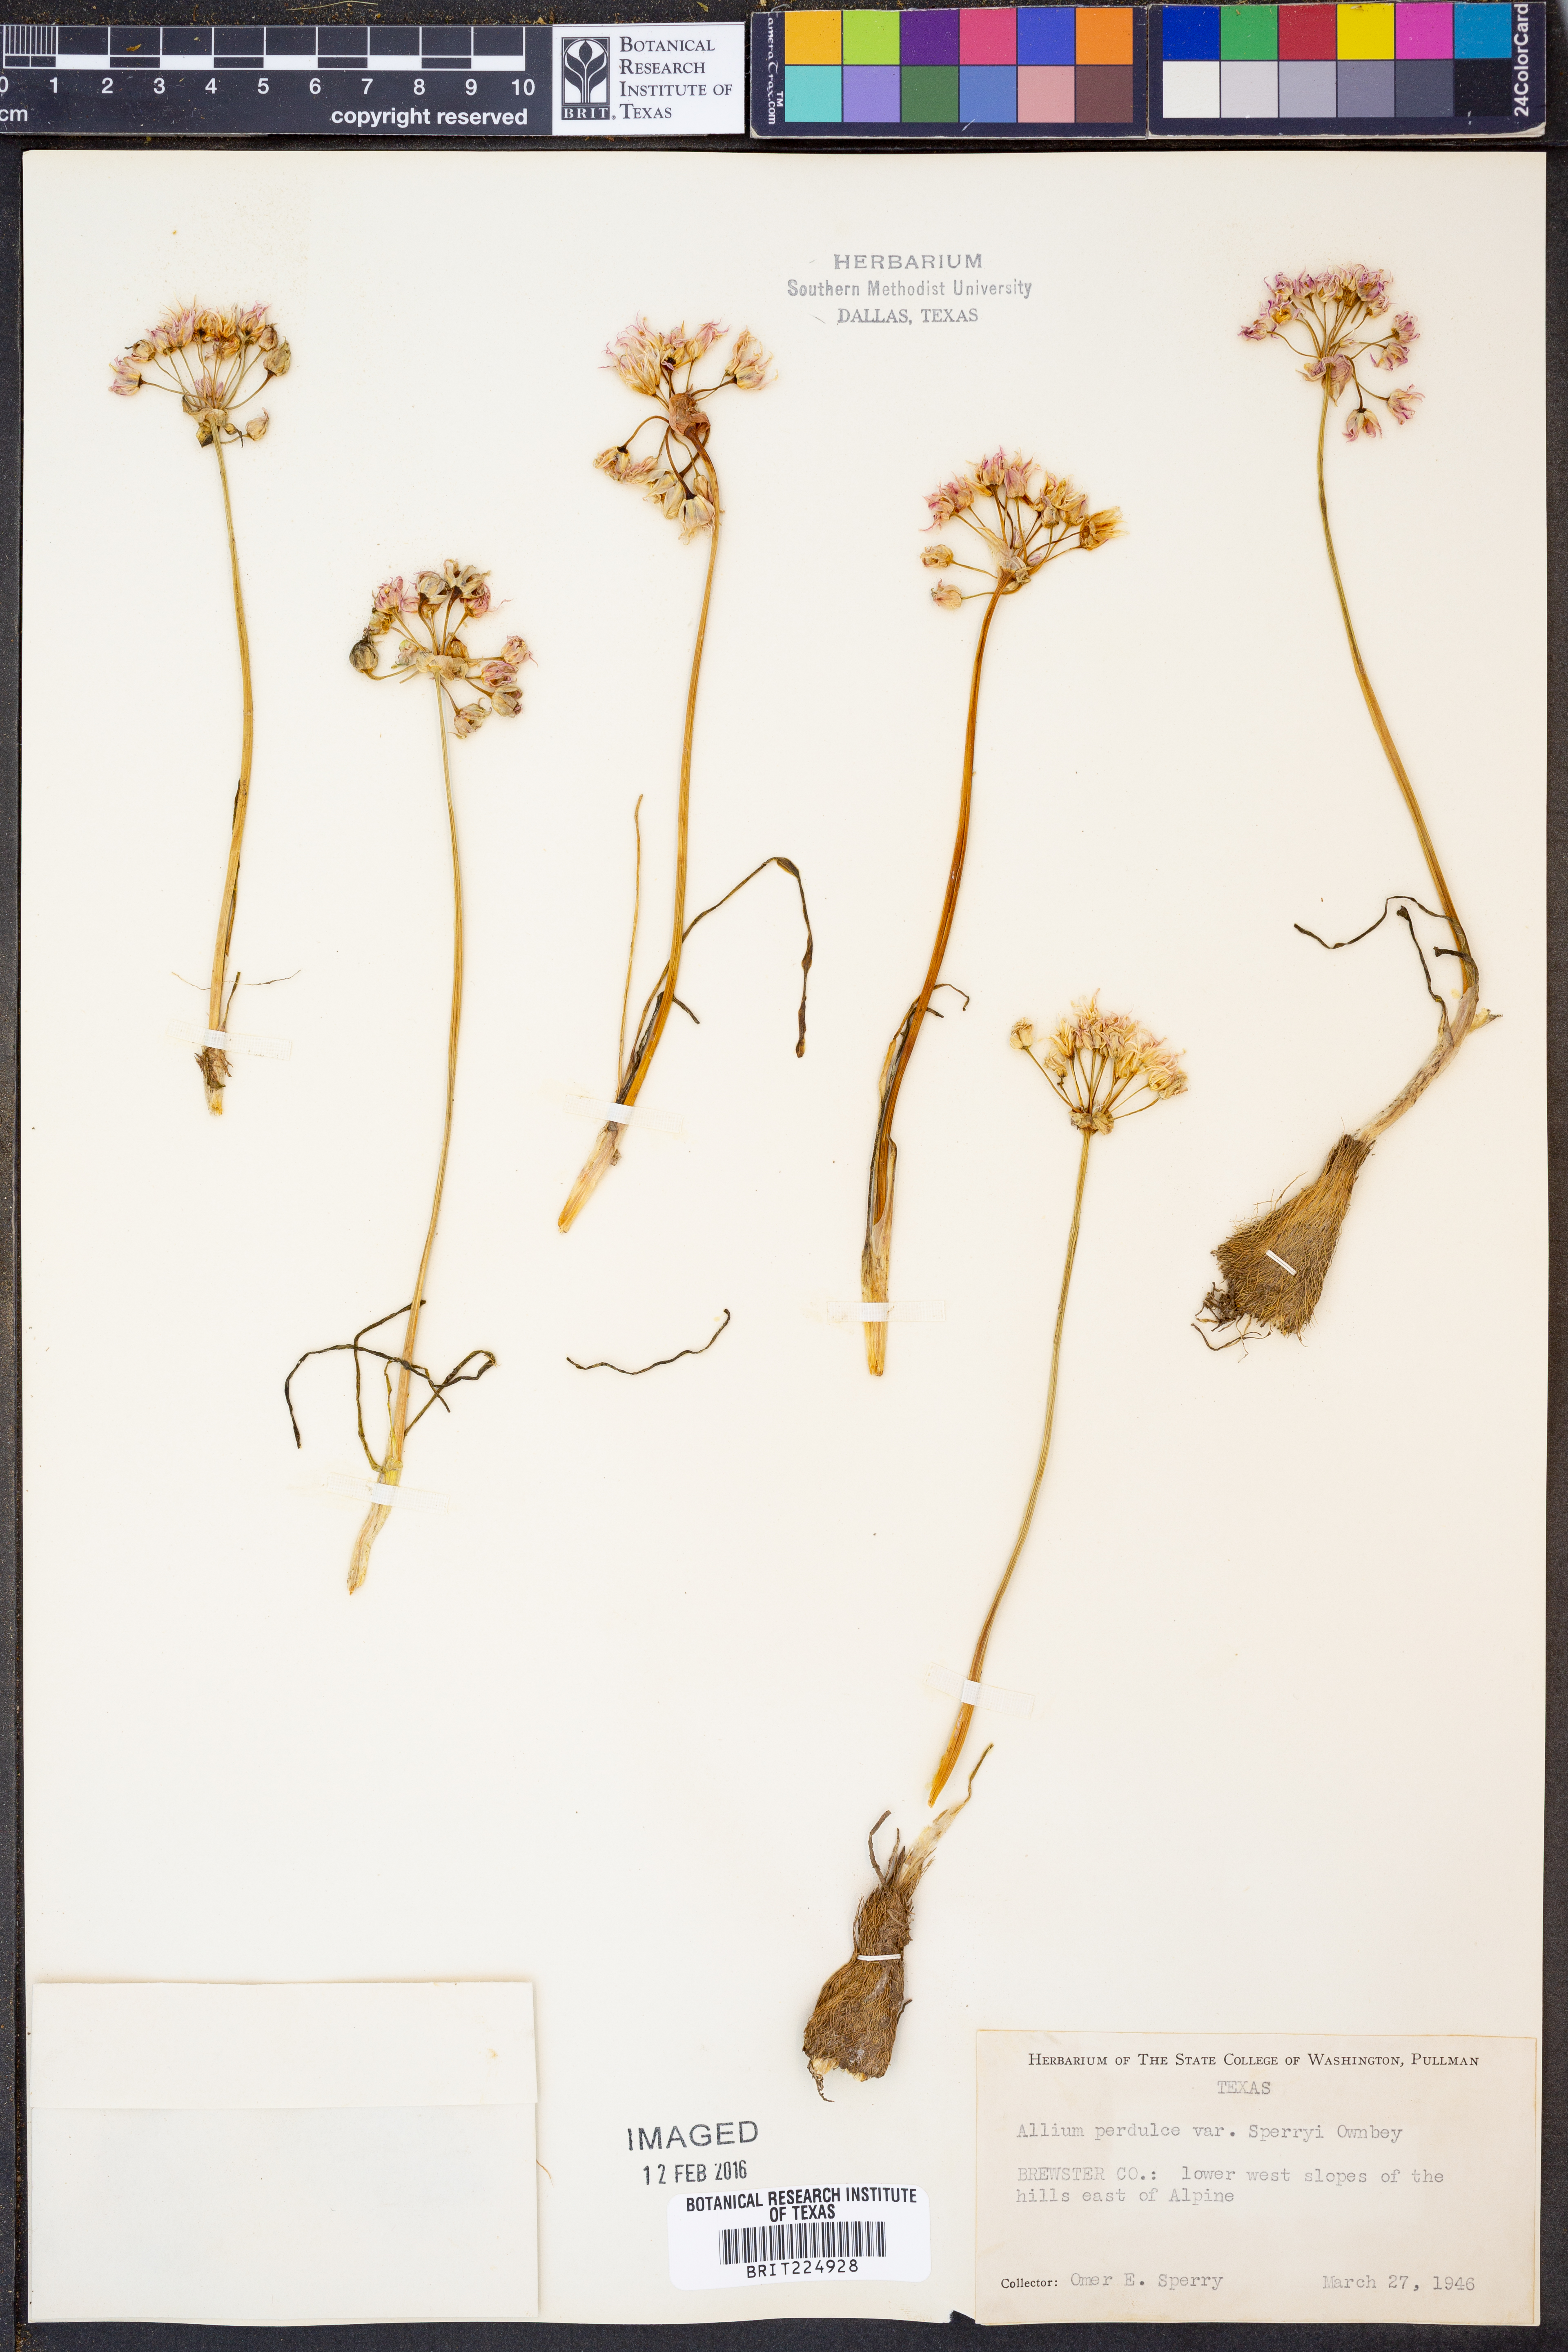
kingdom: Plantae
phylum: Tracheophyta
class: Liliopsida
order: Asparagales
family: Amaryllidaceae
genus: Allium
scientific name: Allium perdulce
